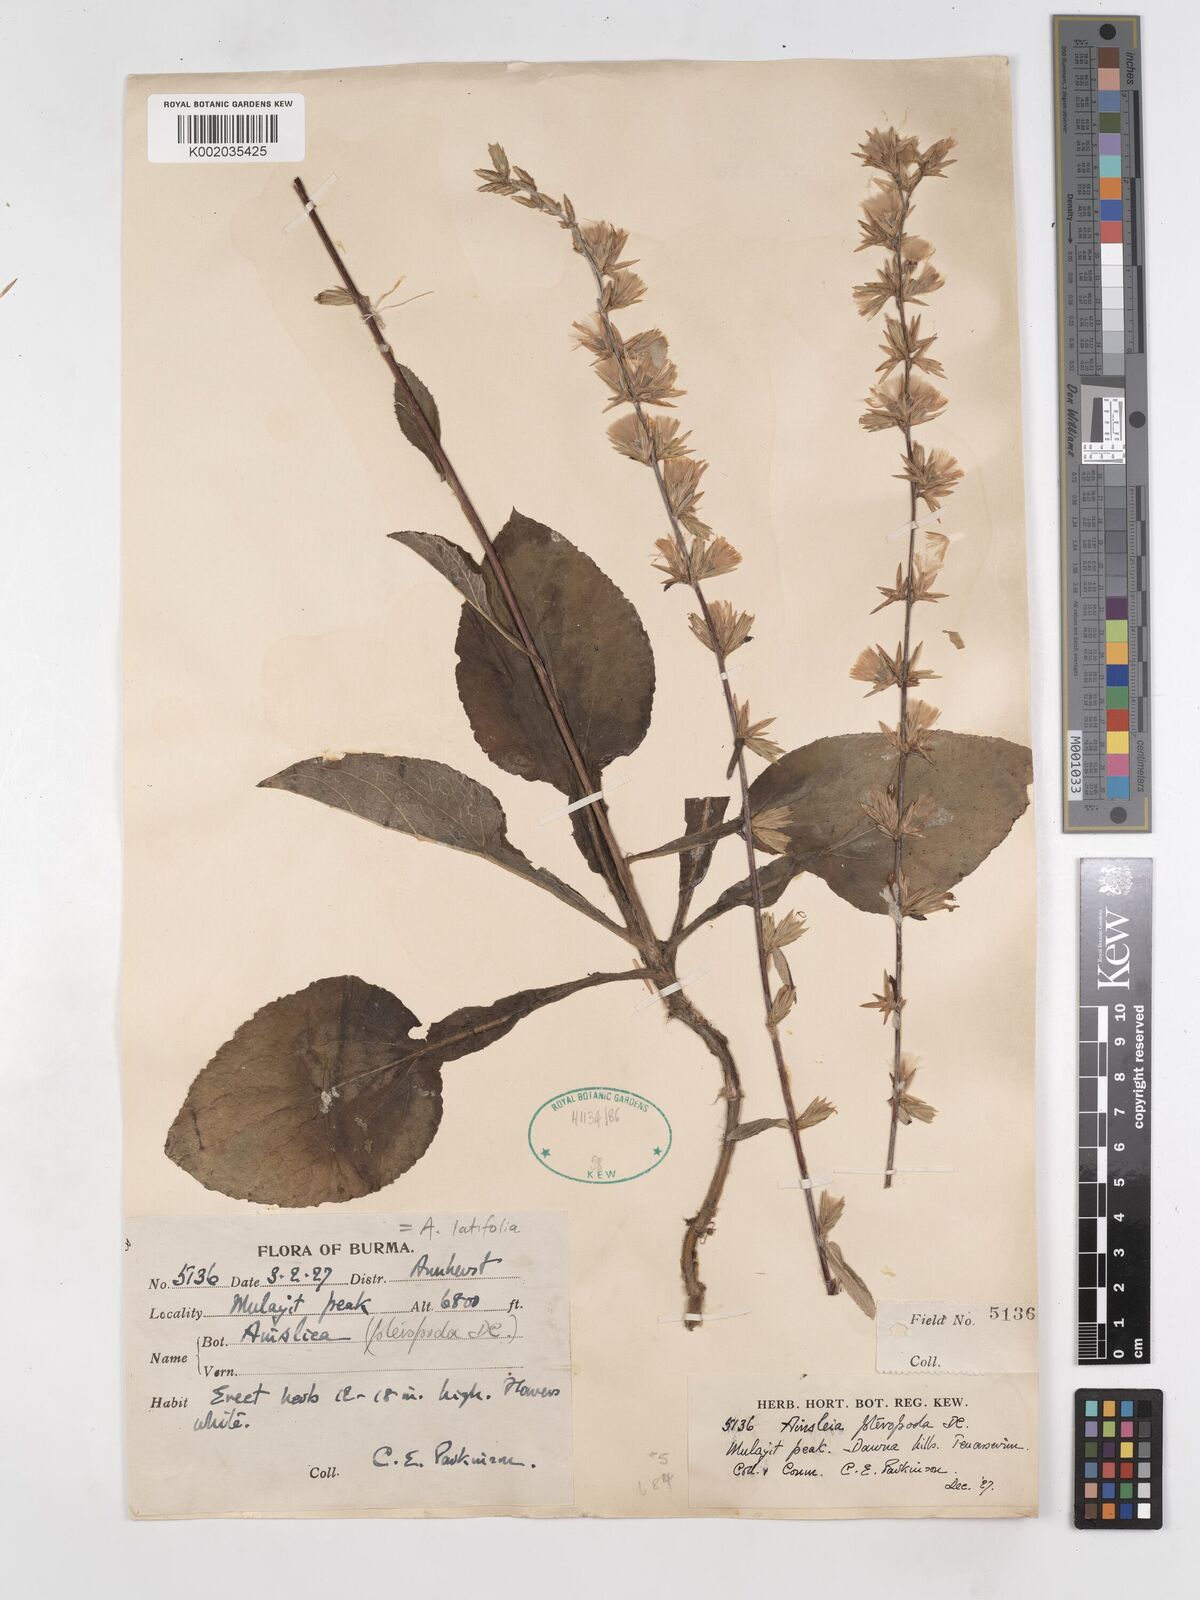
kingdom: Plantae
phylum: Tracheophyta
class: Magnoliopsida
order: Asterales
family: Asteraceae
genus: Ainsliaea
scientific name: Ainsliaea latifolia
